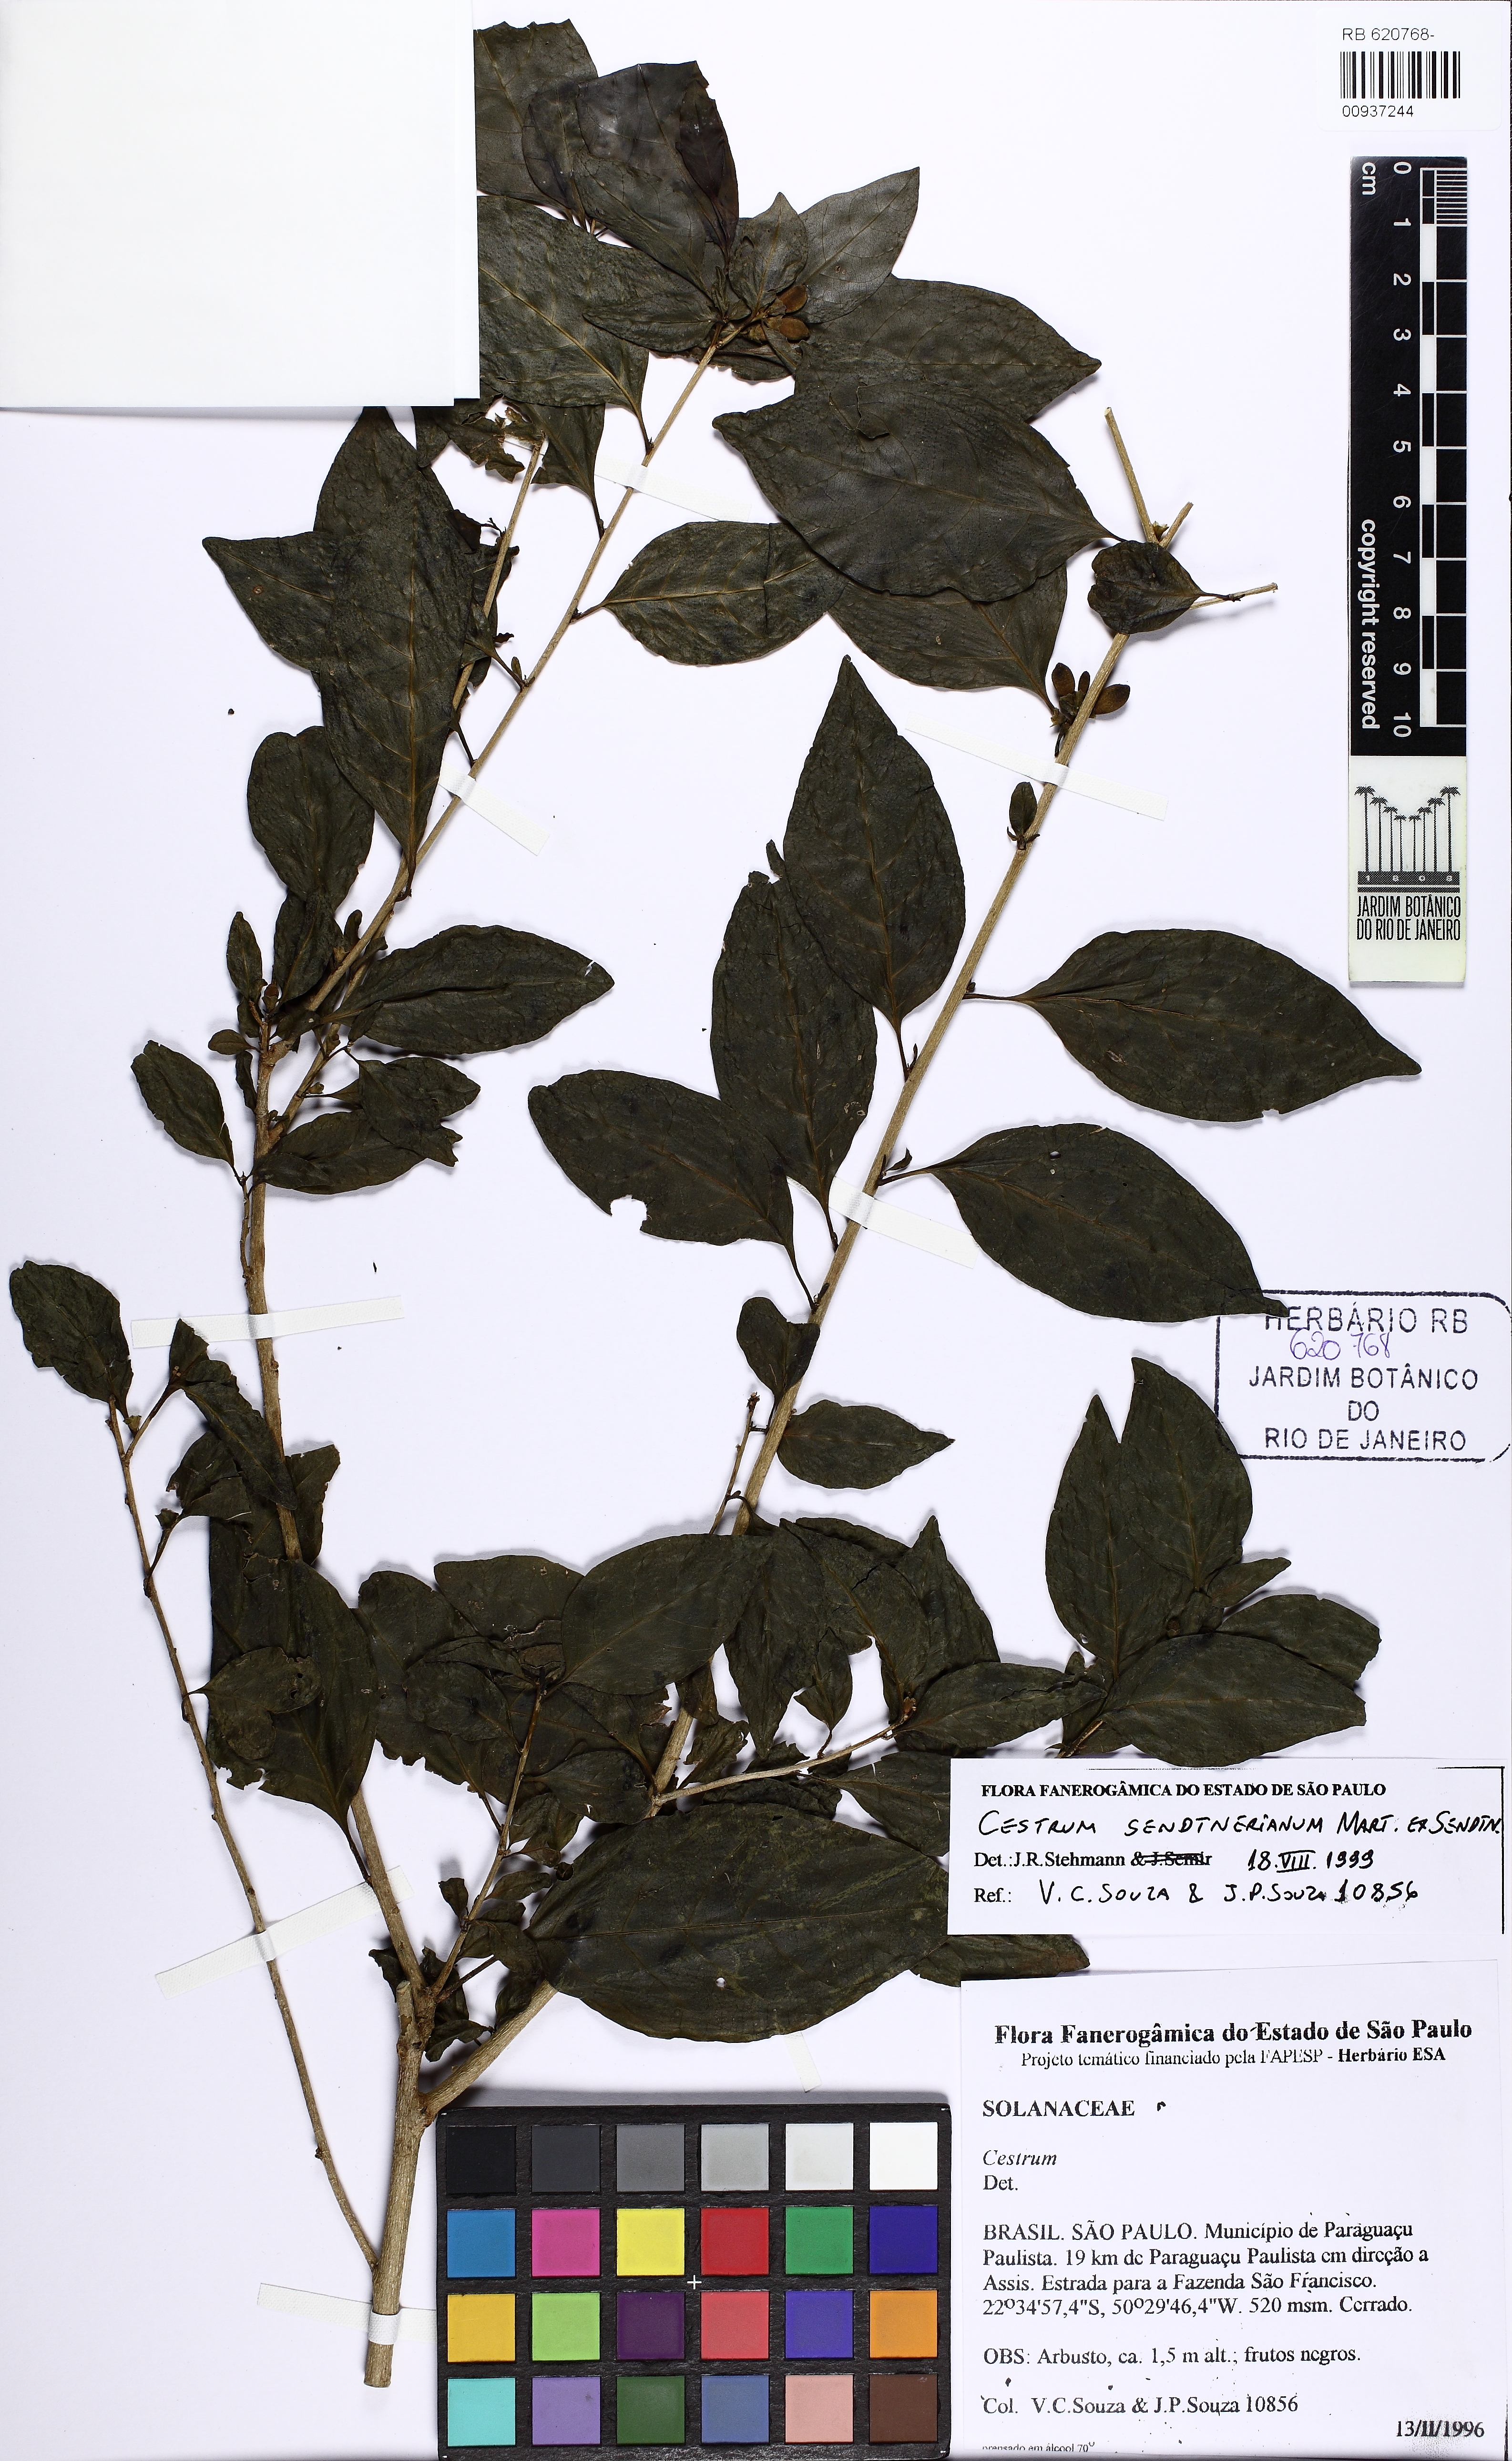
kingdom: Plantae
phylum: Tracheophyta
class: Magnoliopsida
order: Solanales
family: Solanaceae
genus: Cestrum
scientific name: Cestrum mariquitense
